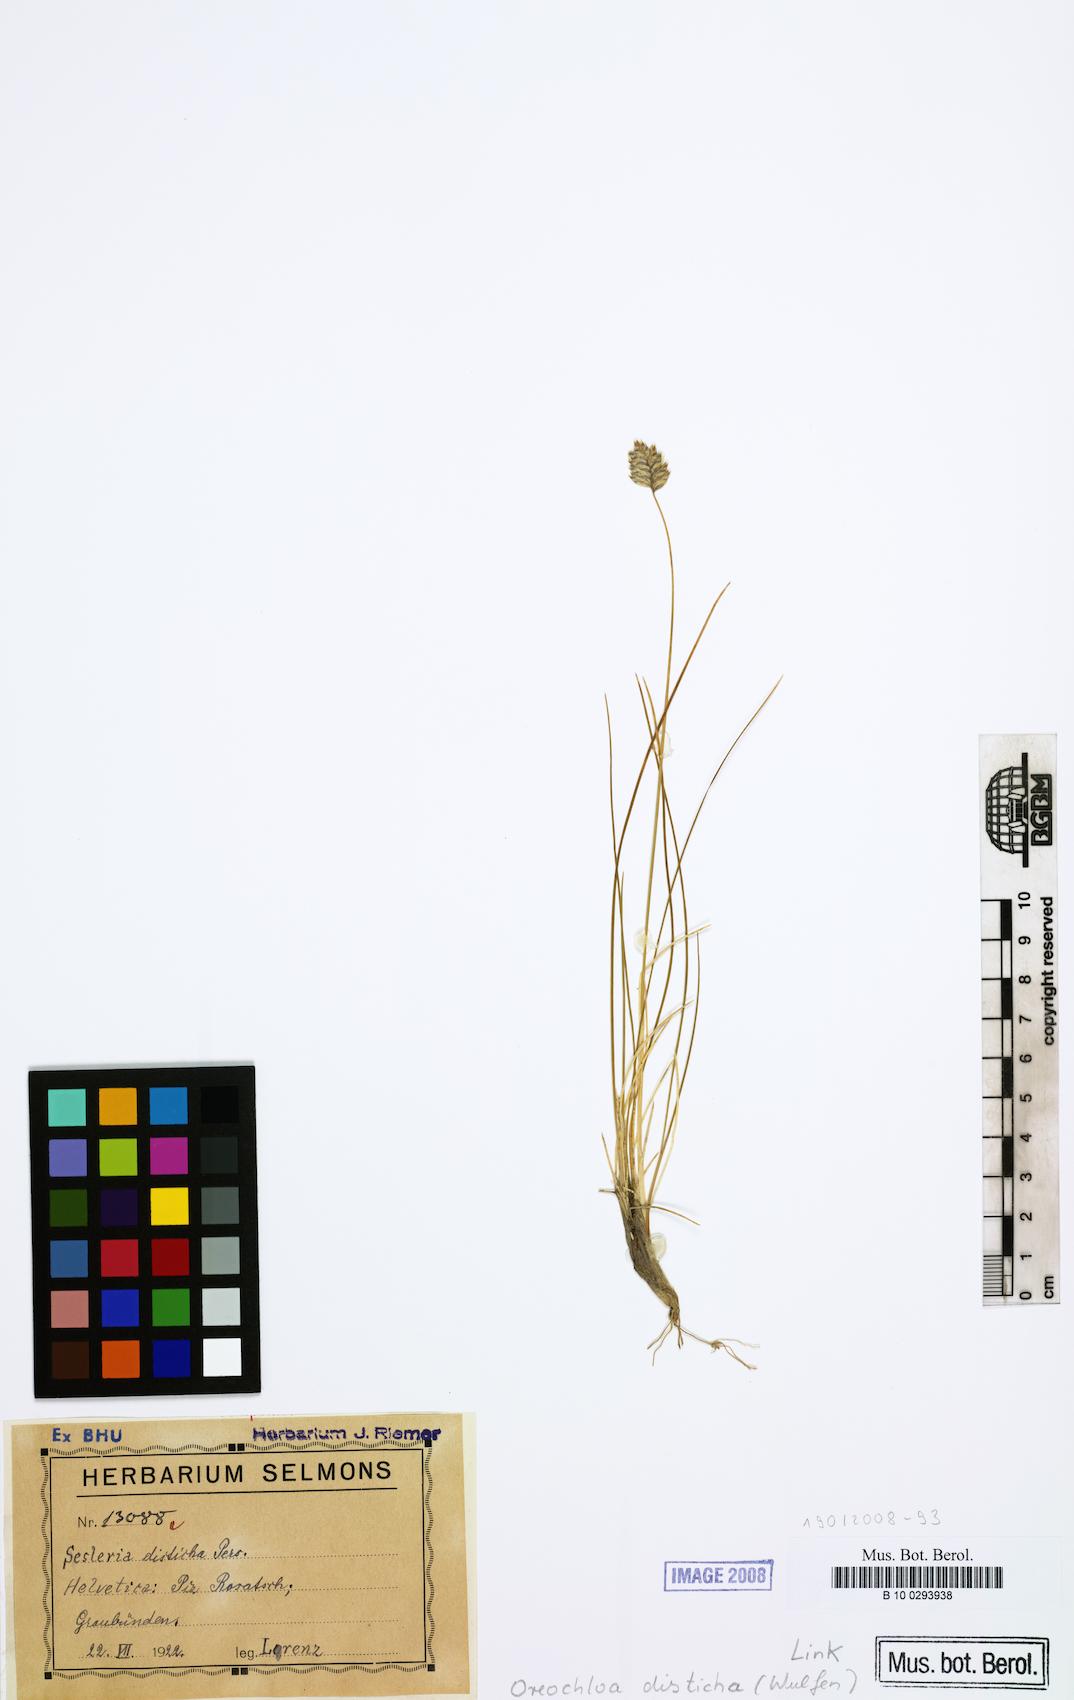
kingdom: Plantae
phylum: Tracheophyta
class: Liliopsida
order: Poales
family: Poaceae
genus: Oreochloa
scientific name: Oreochloa disticha
